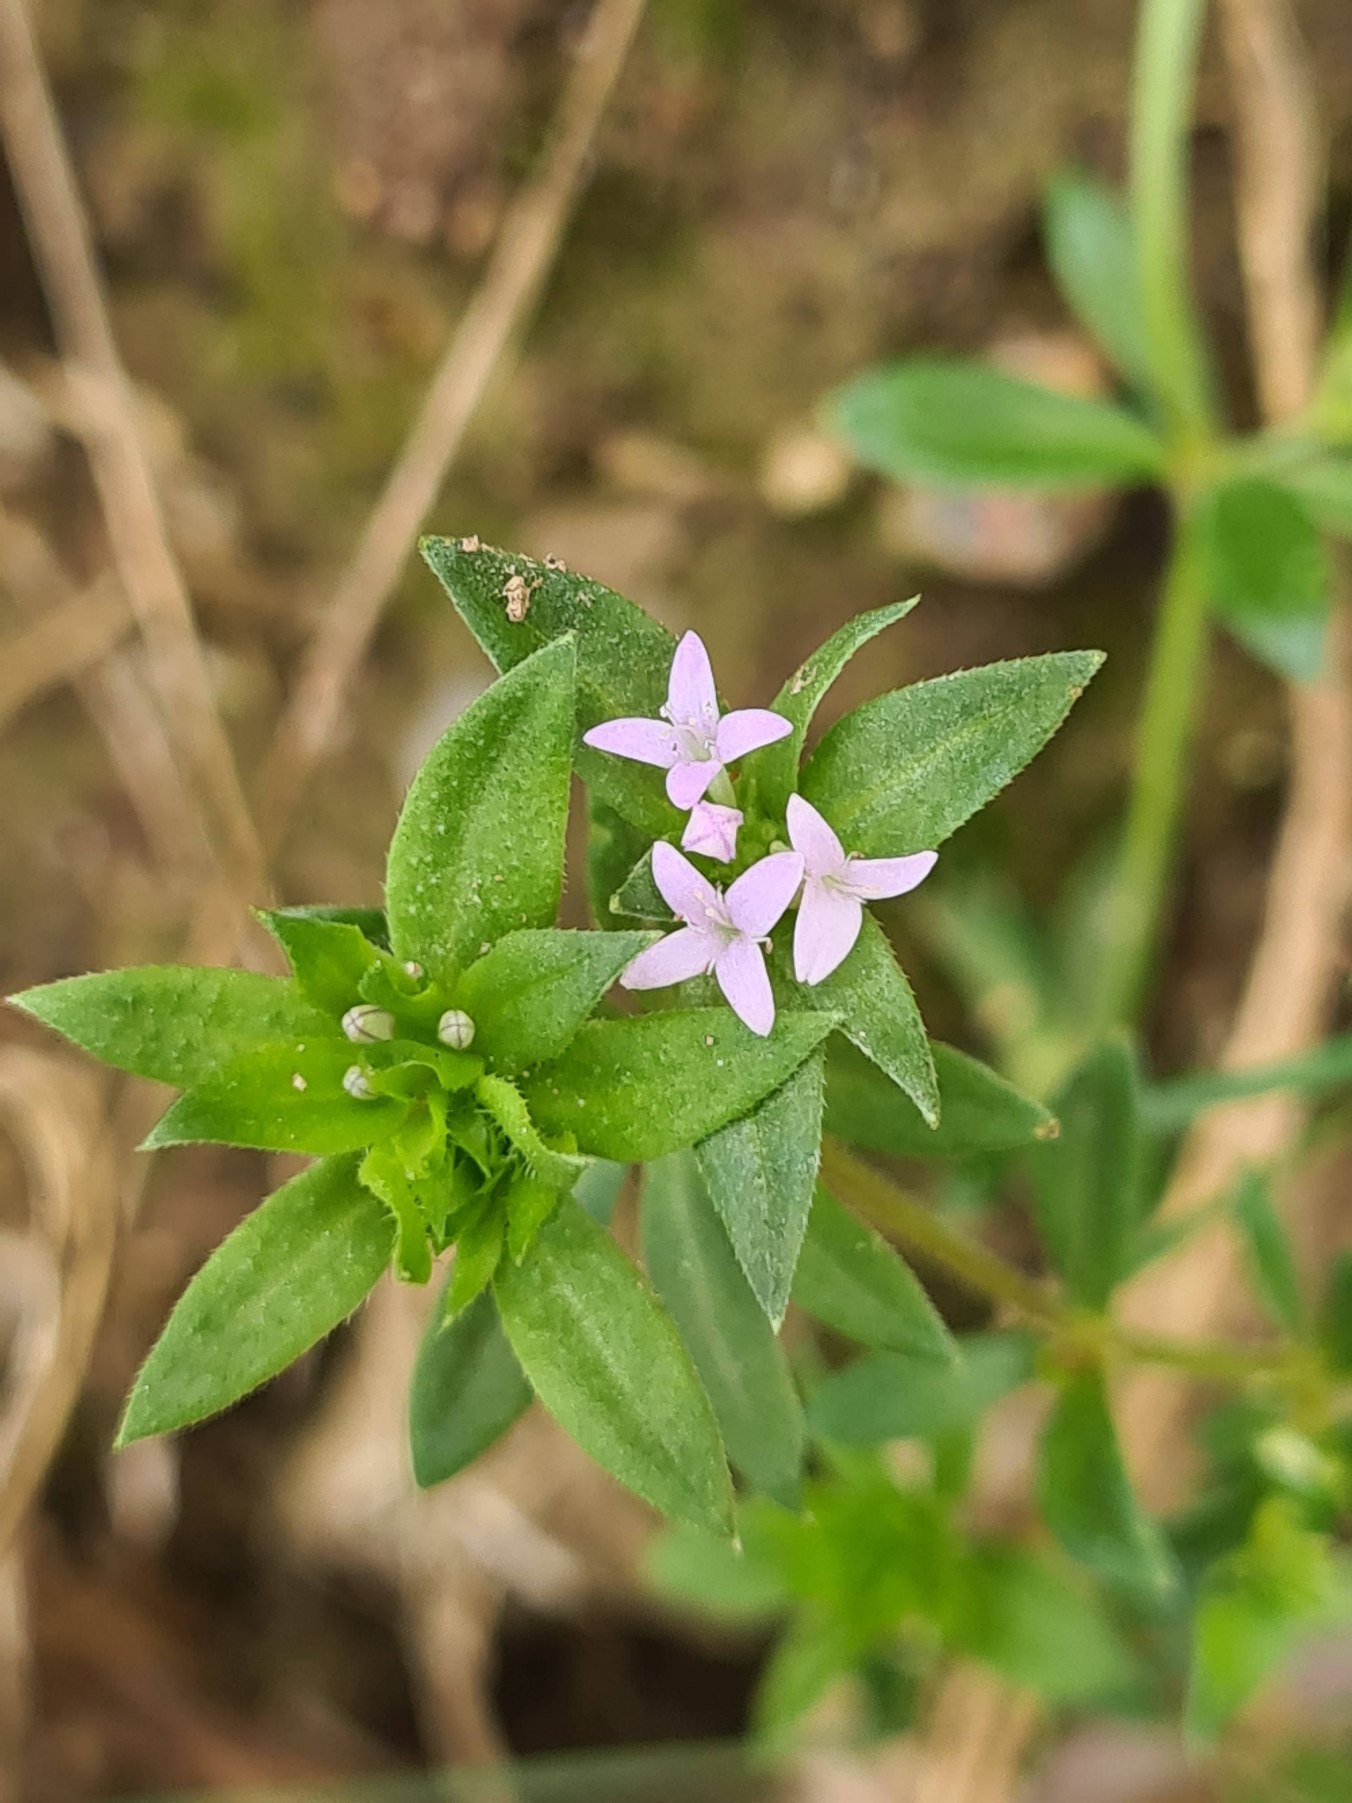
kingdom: Plantae
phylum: Tracheophyta
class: Magnoliopsida
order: Gentianales
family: Rubiaceae
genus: Sherardia
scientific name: Sherardia arvensis
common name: Blåstjerne
